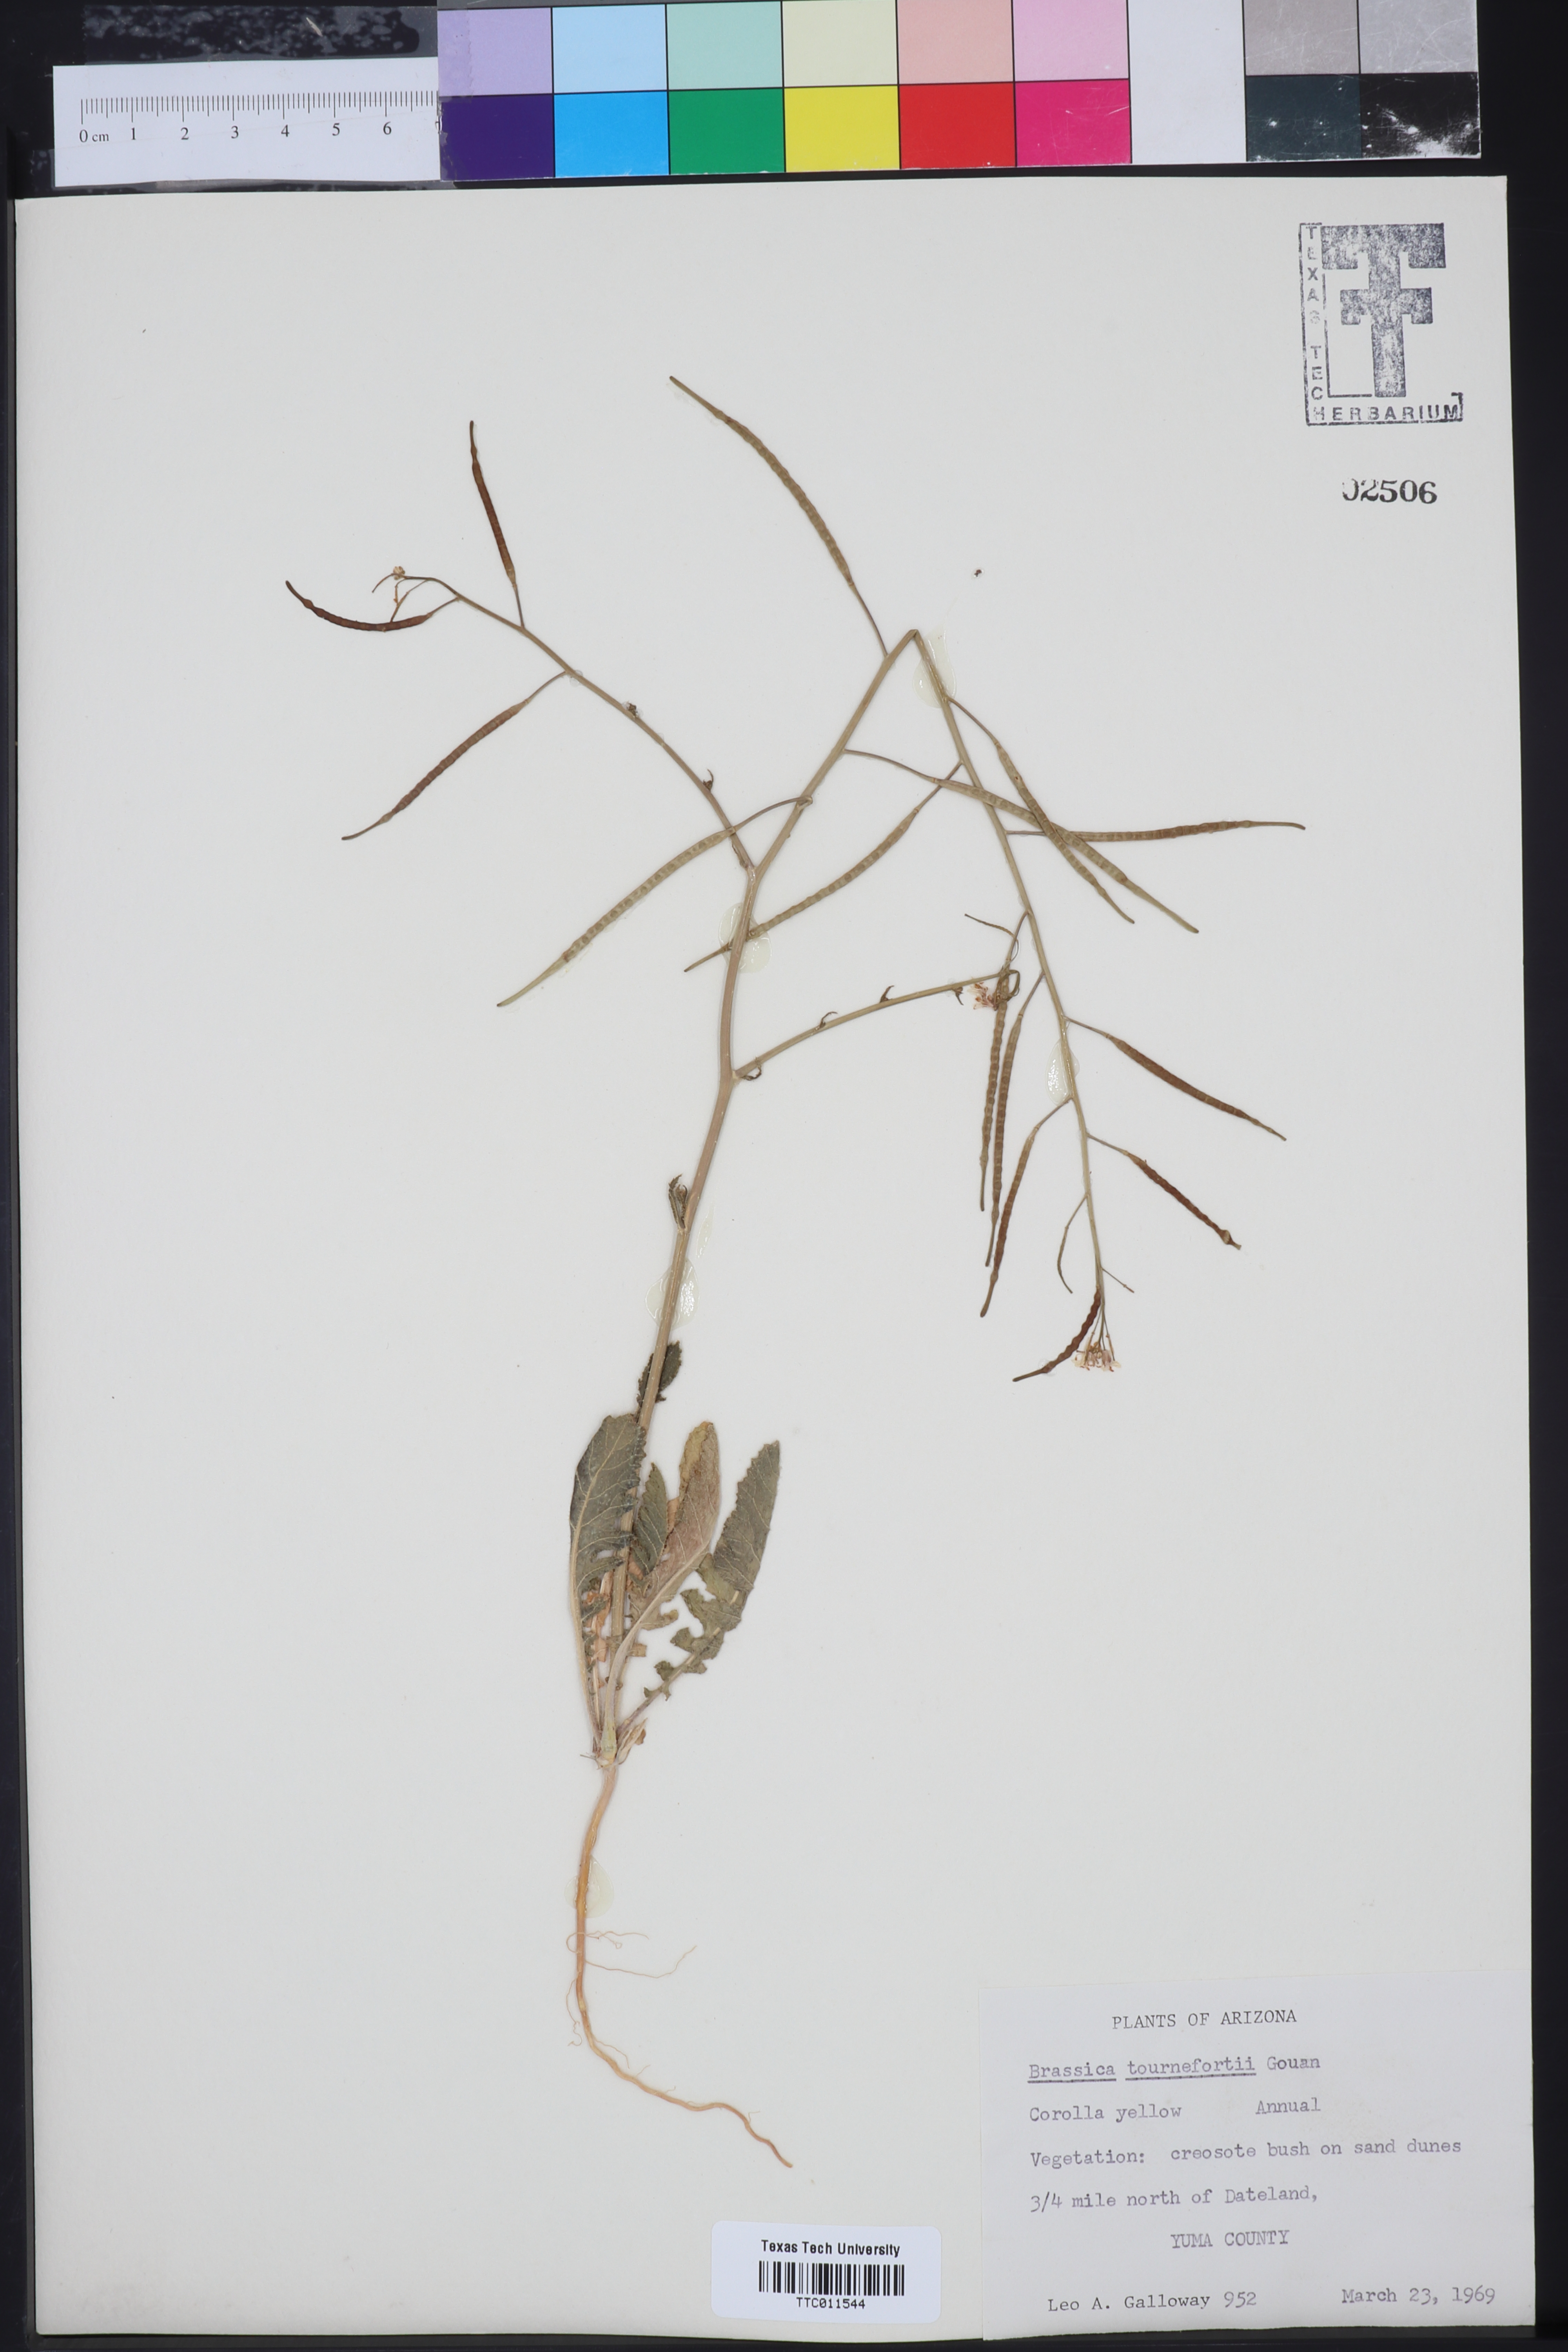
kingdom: Plantae
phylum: Tracheophyta
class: Magnoliopsida
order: Brassicales
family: Brassicaceae
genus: Brassica
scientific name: Brassica tournefortii
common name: Pale cabbage
